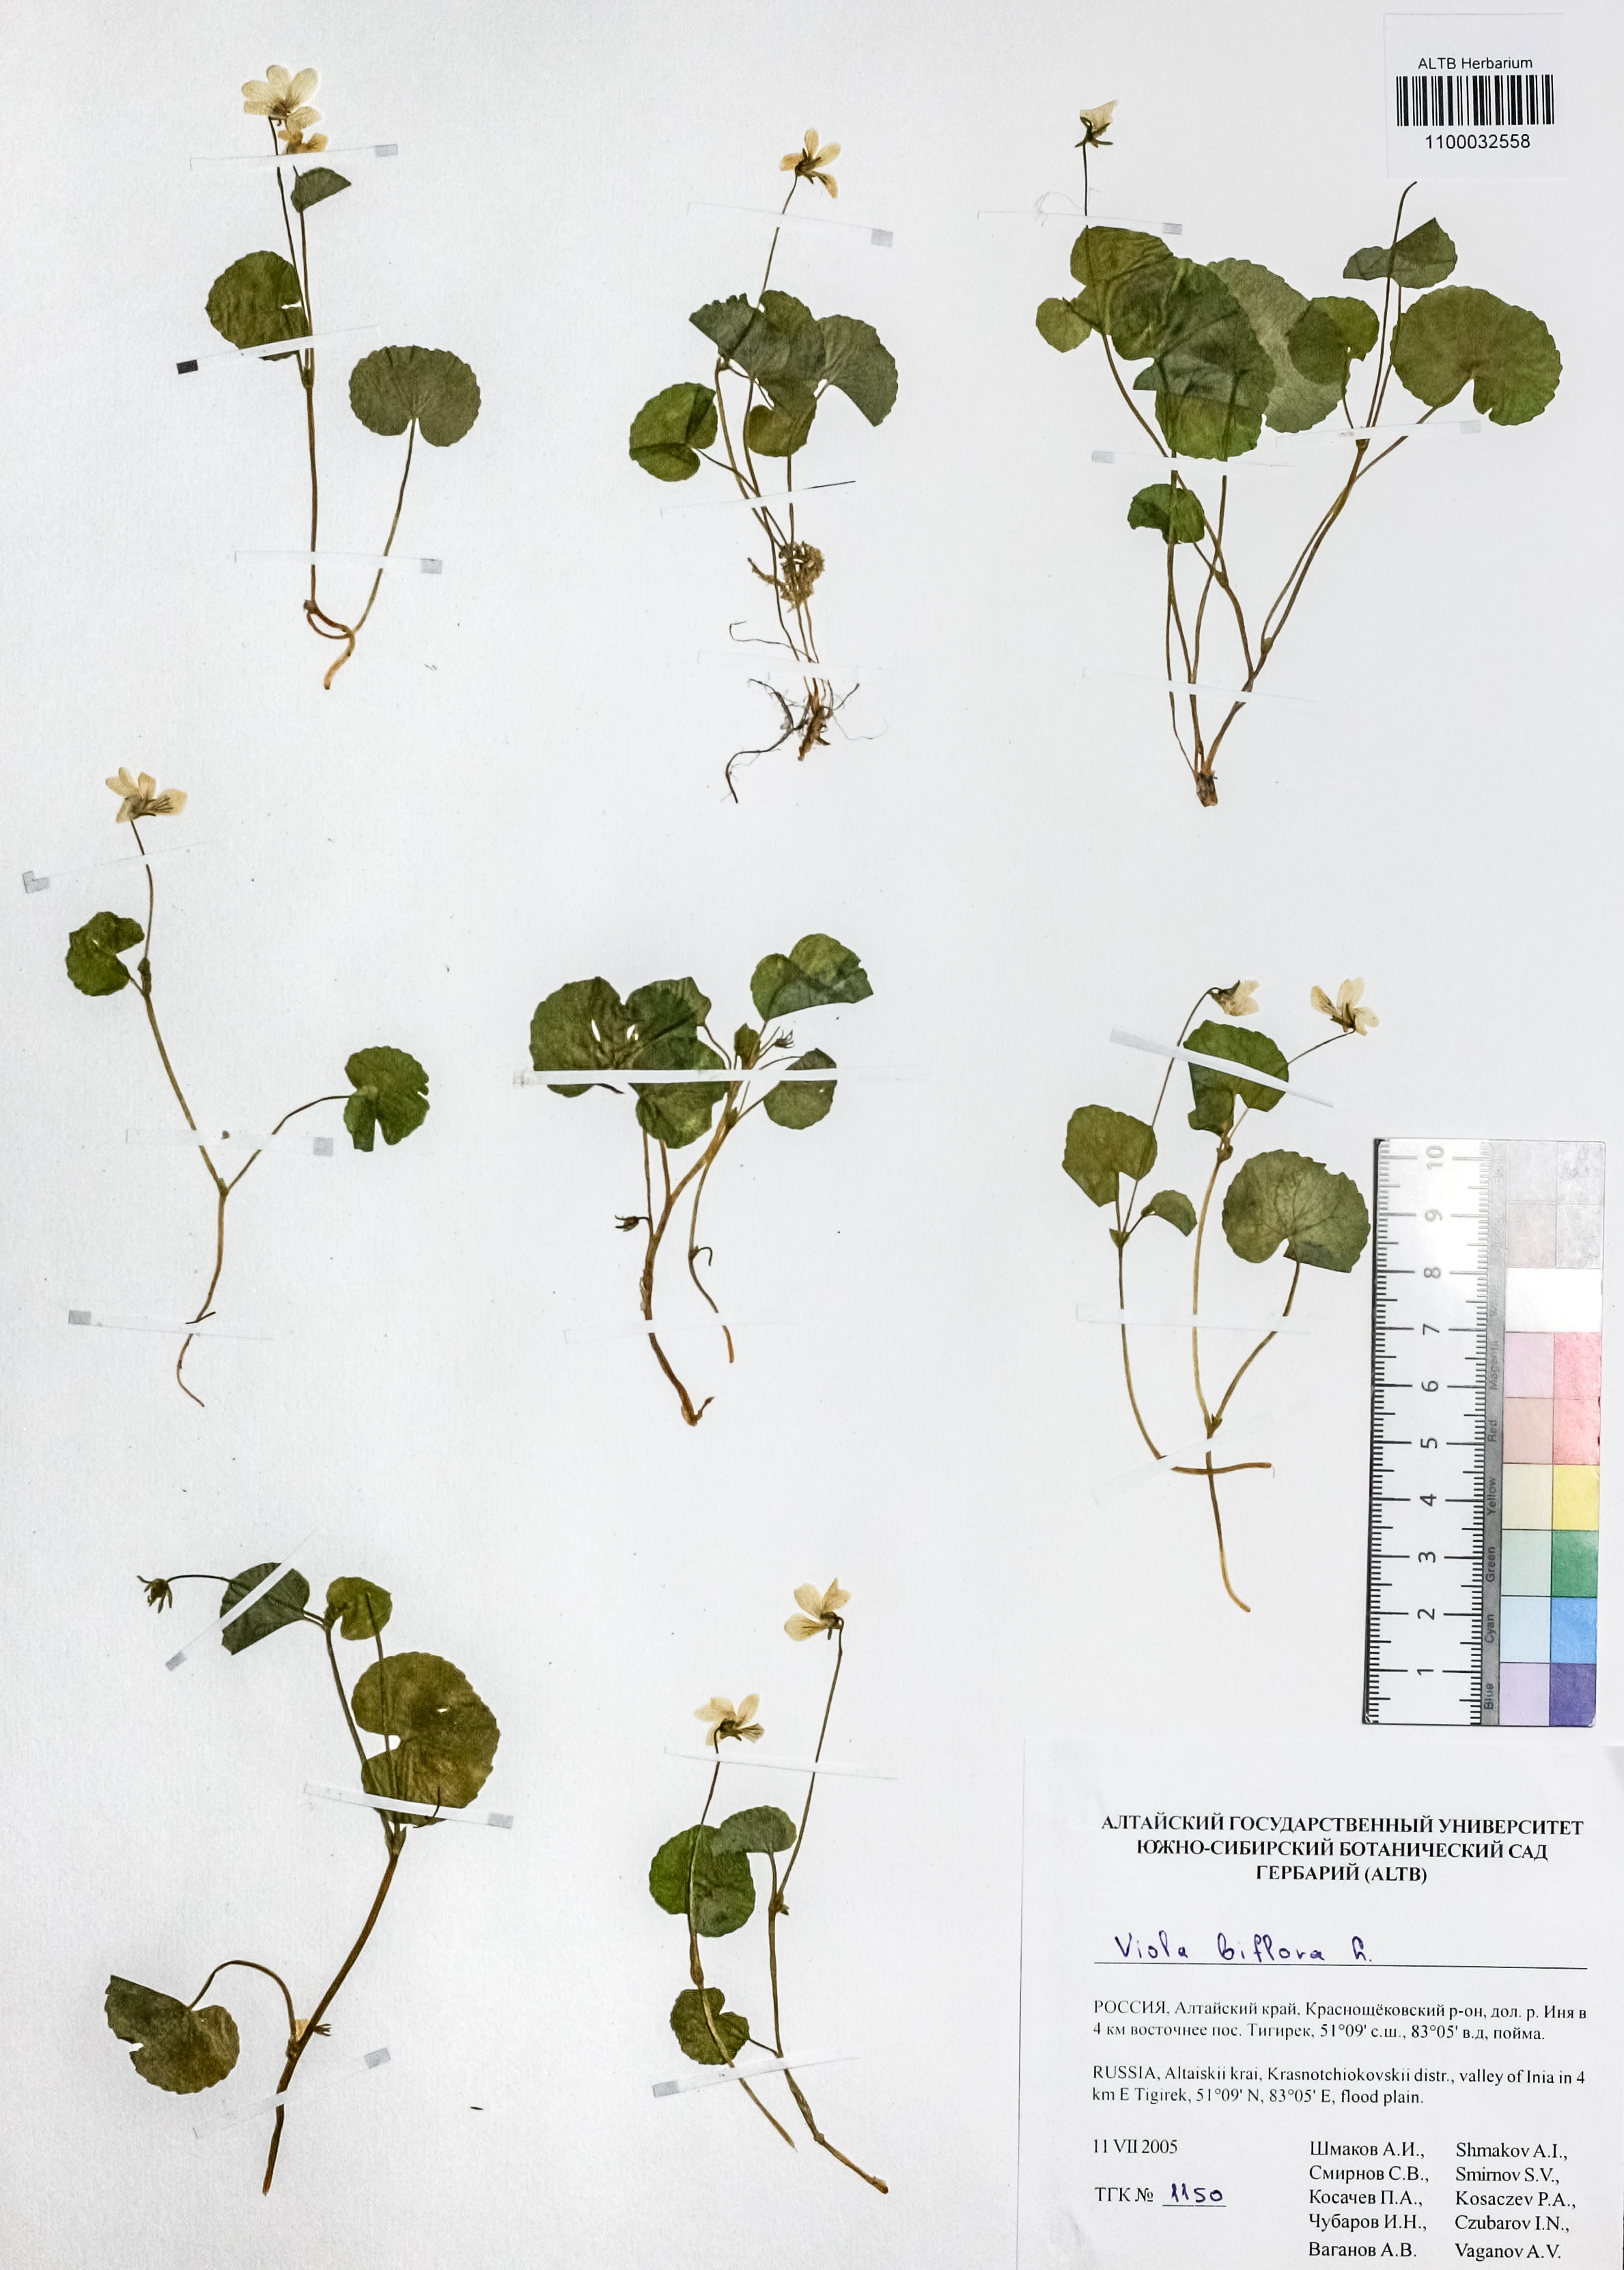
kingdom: Plantae
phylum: Tracheophyta
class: Magnoliopsida
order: Malpighiales
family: Violaceae
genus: Viola
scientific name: Viola biflora
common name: Alpine yellow violet
